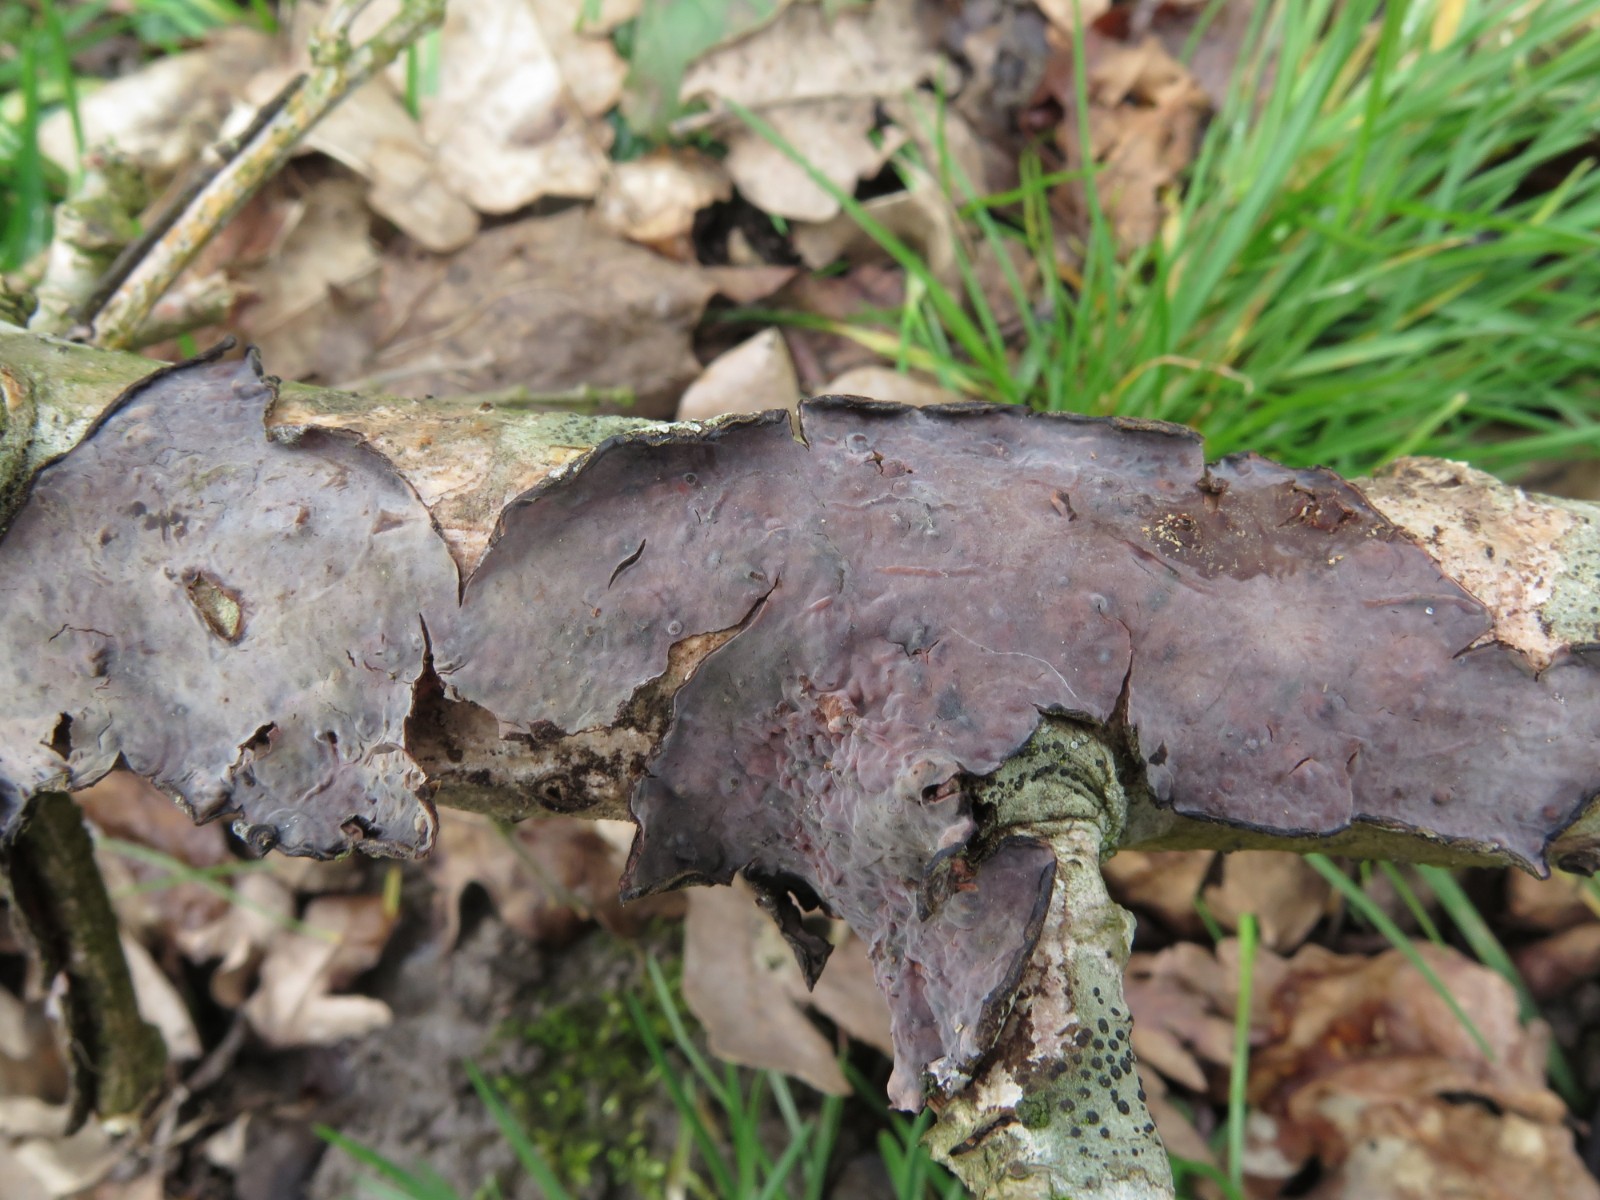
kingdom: Fungi
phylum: Basidiomycota
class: Agaricomycetes
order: Russulales
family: Peniophoraceae
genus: Peniophora
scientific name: Peniophora quercina
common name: ege-voksskind
